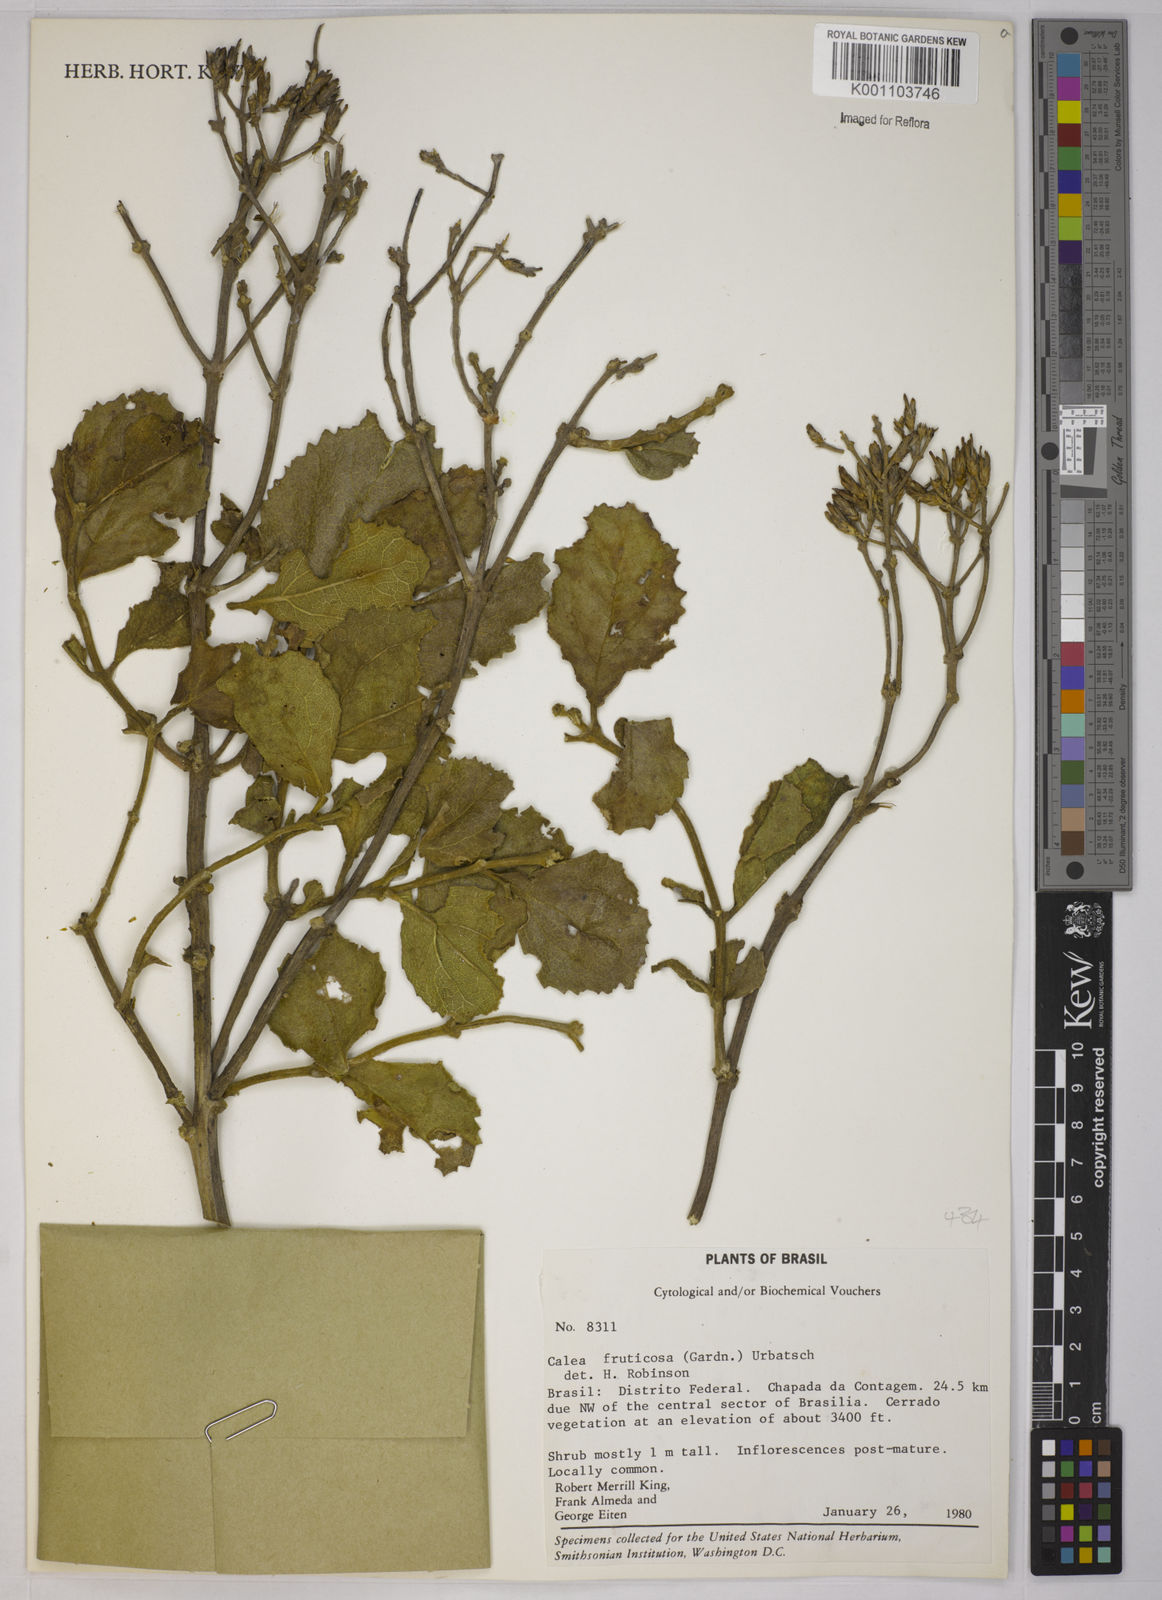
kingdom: Plantae
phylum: Tracheophyta
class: Magnoliopsida
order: Asterales
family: Asteraceae
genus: Calea
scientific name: Calea fruticosa
